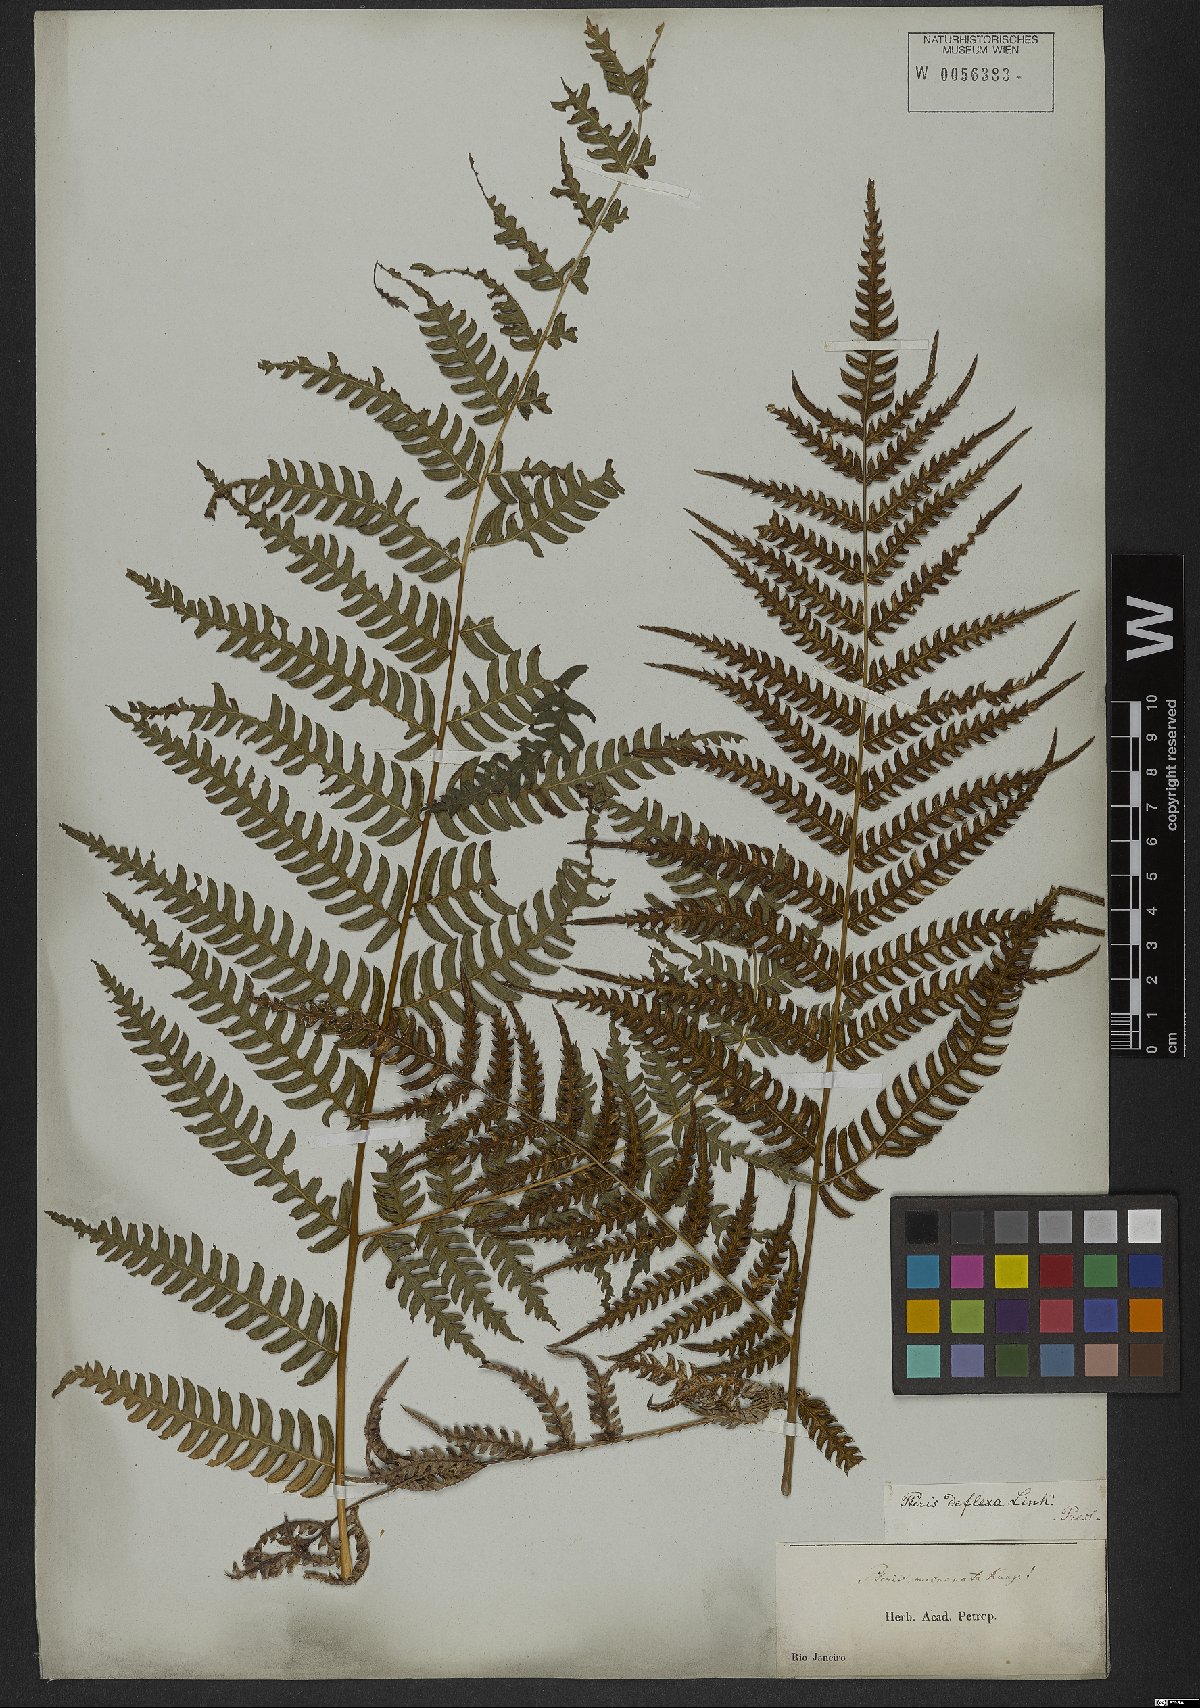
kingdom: Plantae
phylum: Tracheophyta
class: Polypodiopsida
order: Polypodiales
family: Pteridaceae
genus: Pteris
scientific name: Pteris deflexa
